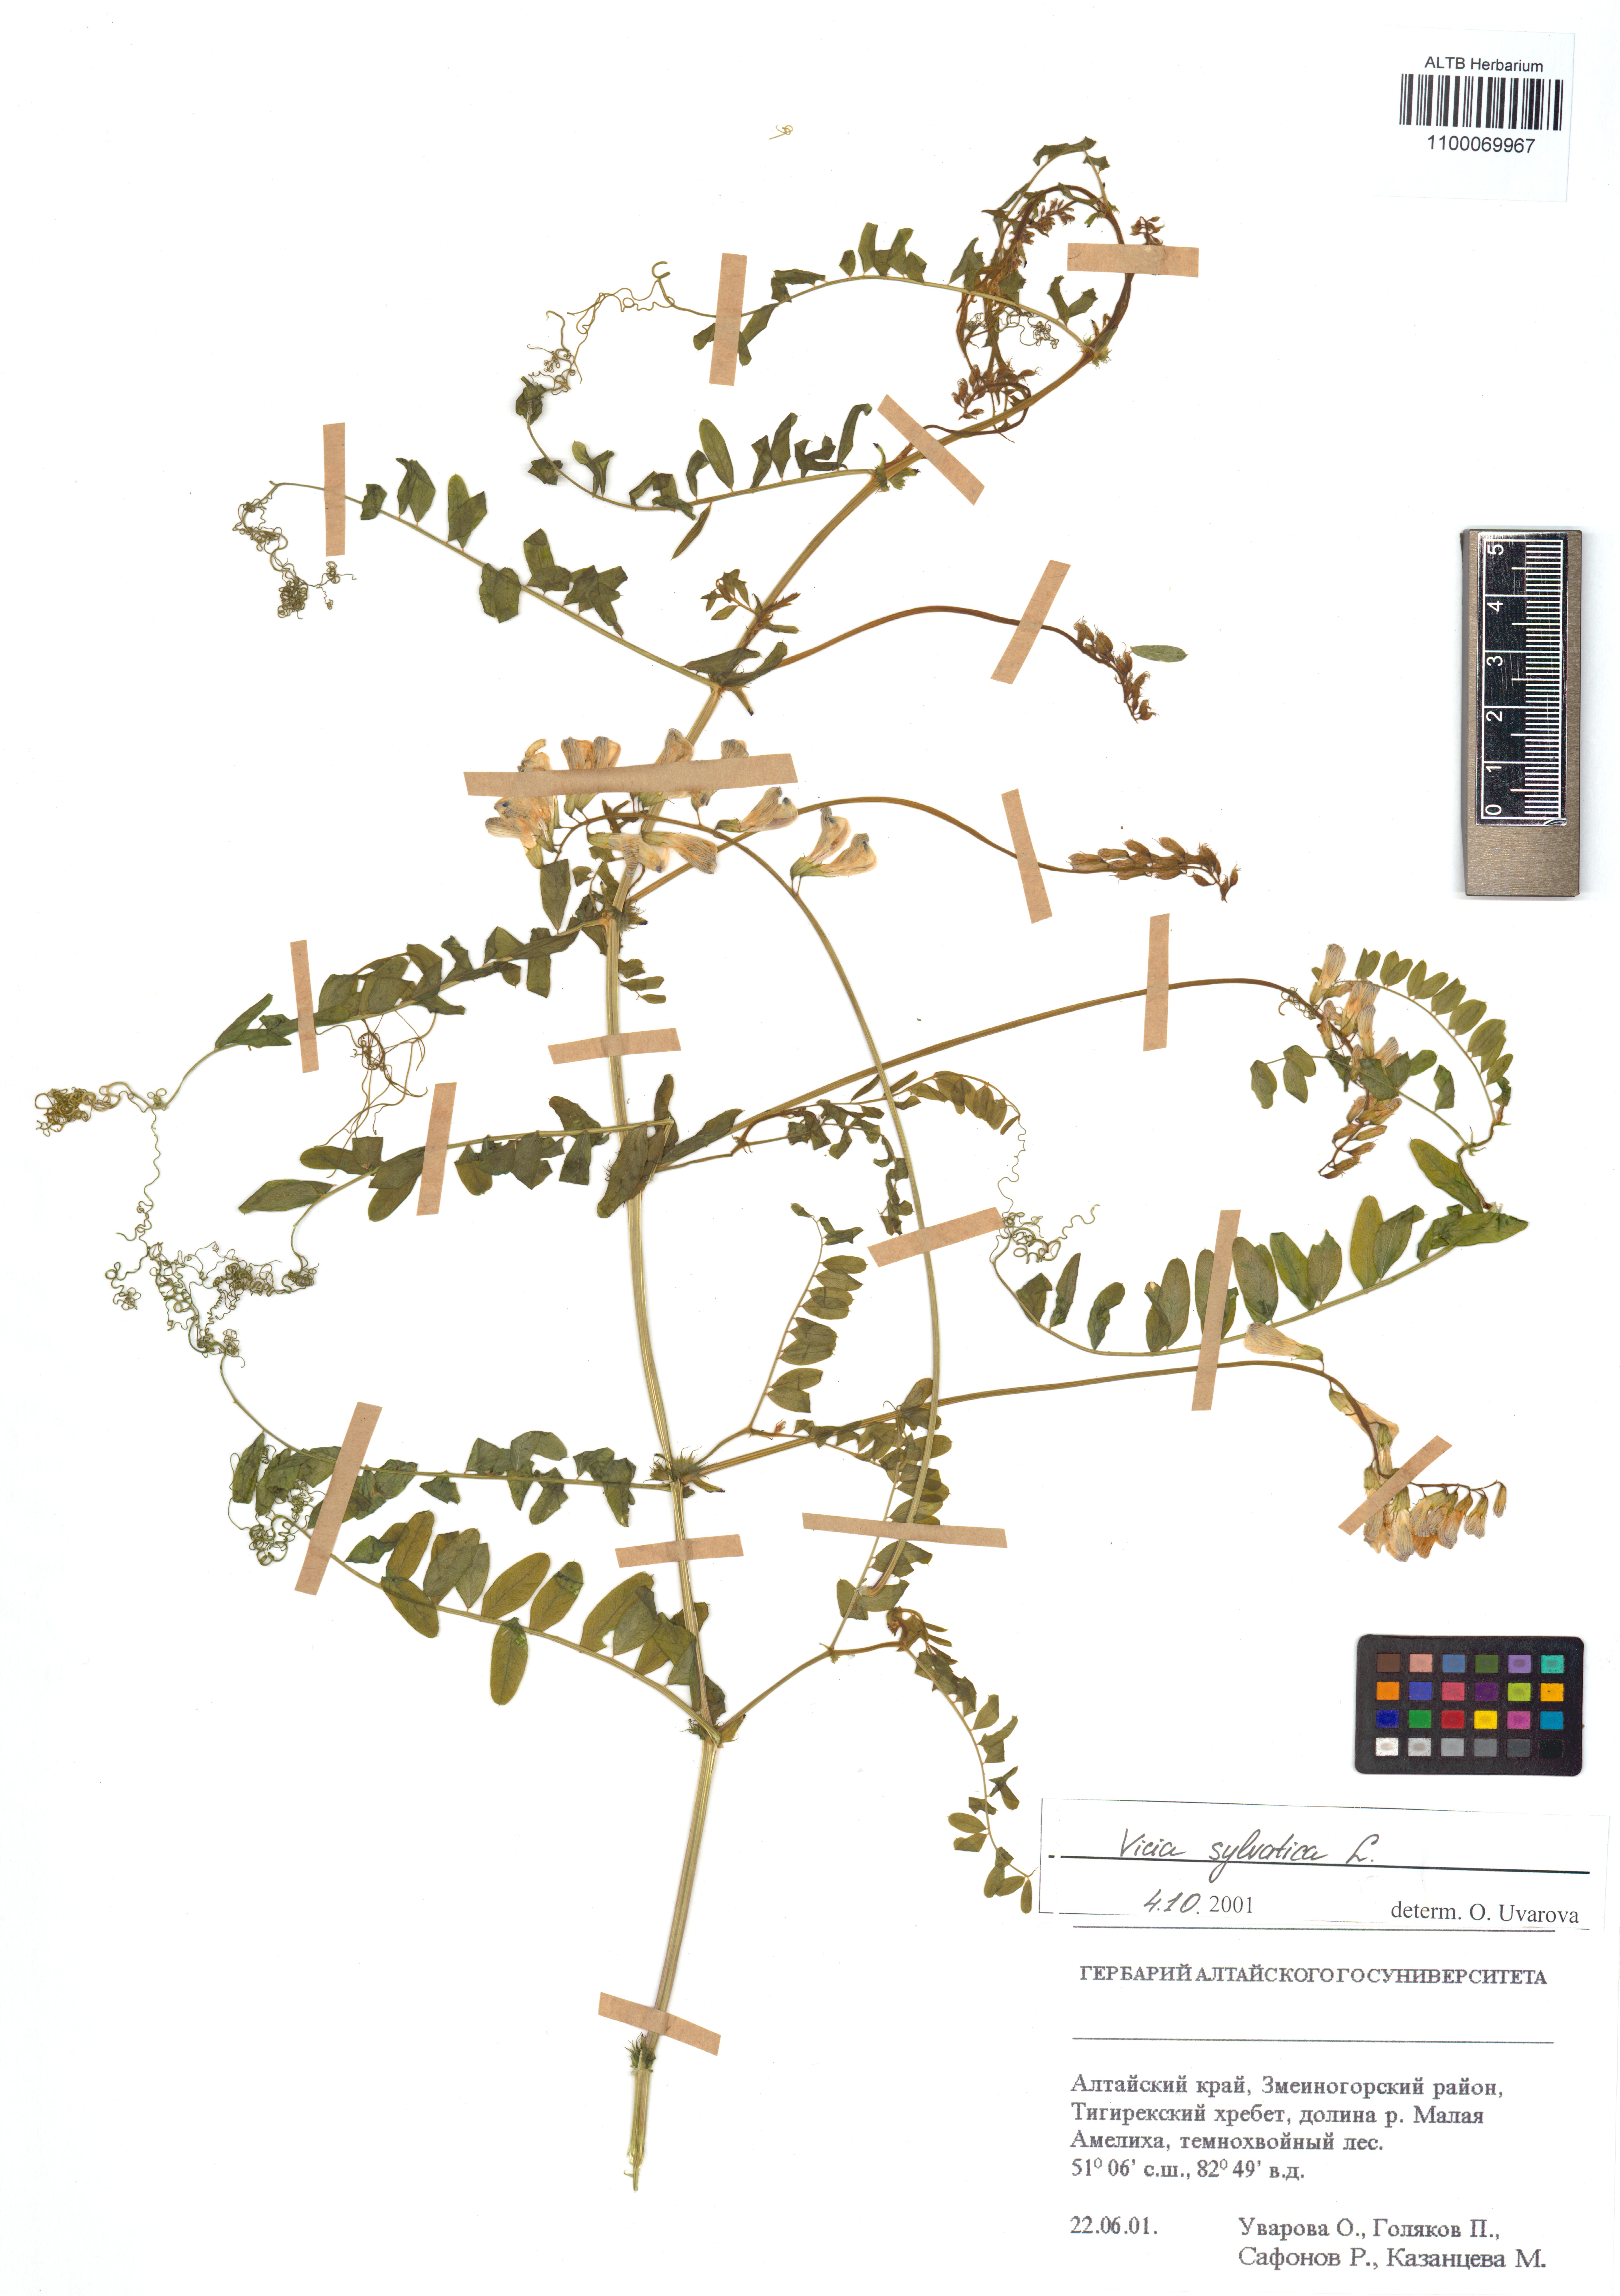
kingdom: Plantae
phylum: Tracheophyta
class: Magnoliopsida
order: Fabales
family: Fabaceae
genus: Vicia
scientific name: Vicia bakeri
